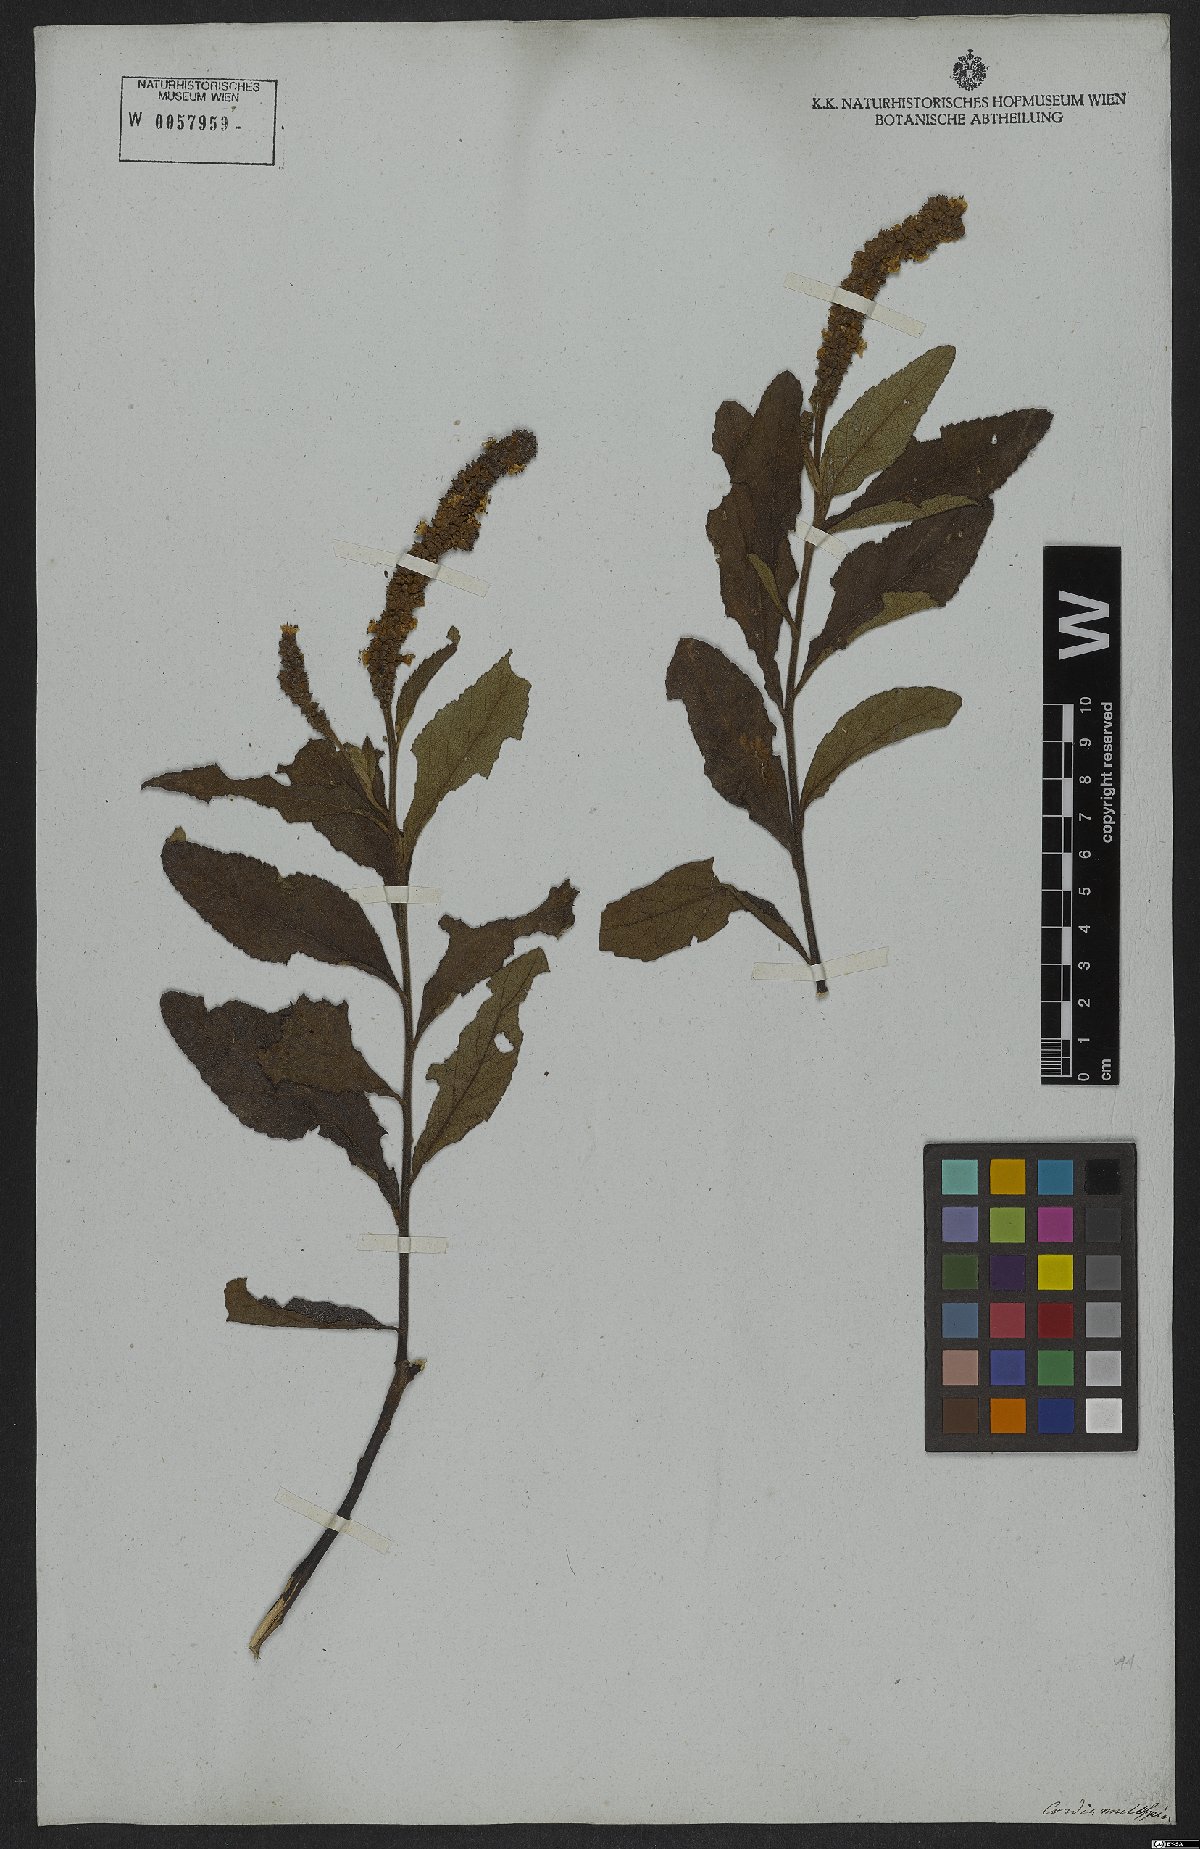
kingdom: Plantae
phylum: Tracheophyta
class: Magnoliopsida
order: Boraginales
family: Cordiaceae
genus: Varronia
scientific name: Varronia multispicata
